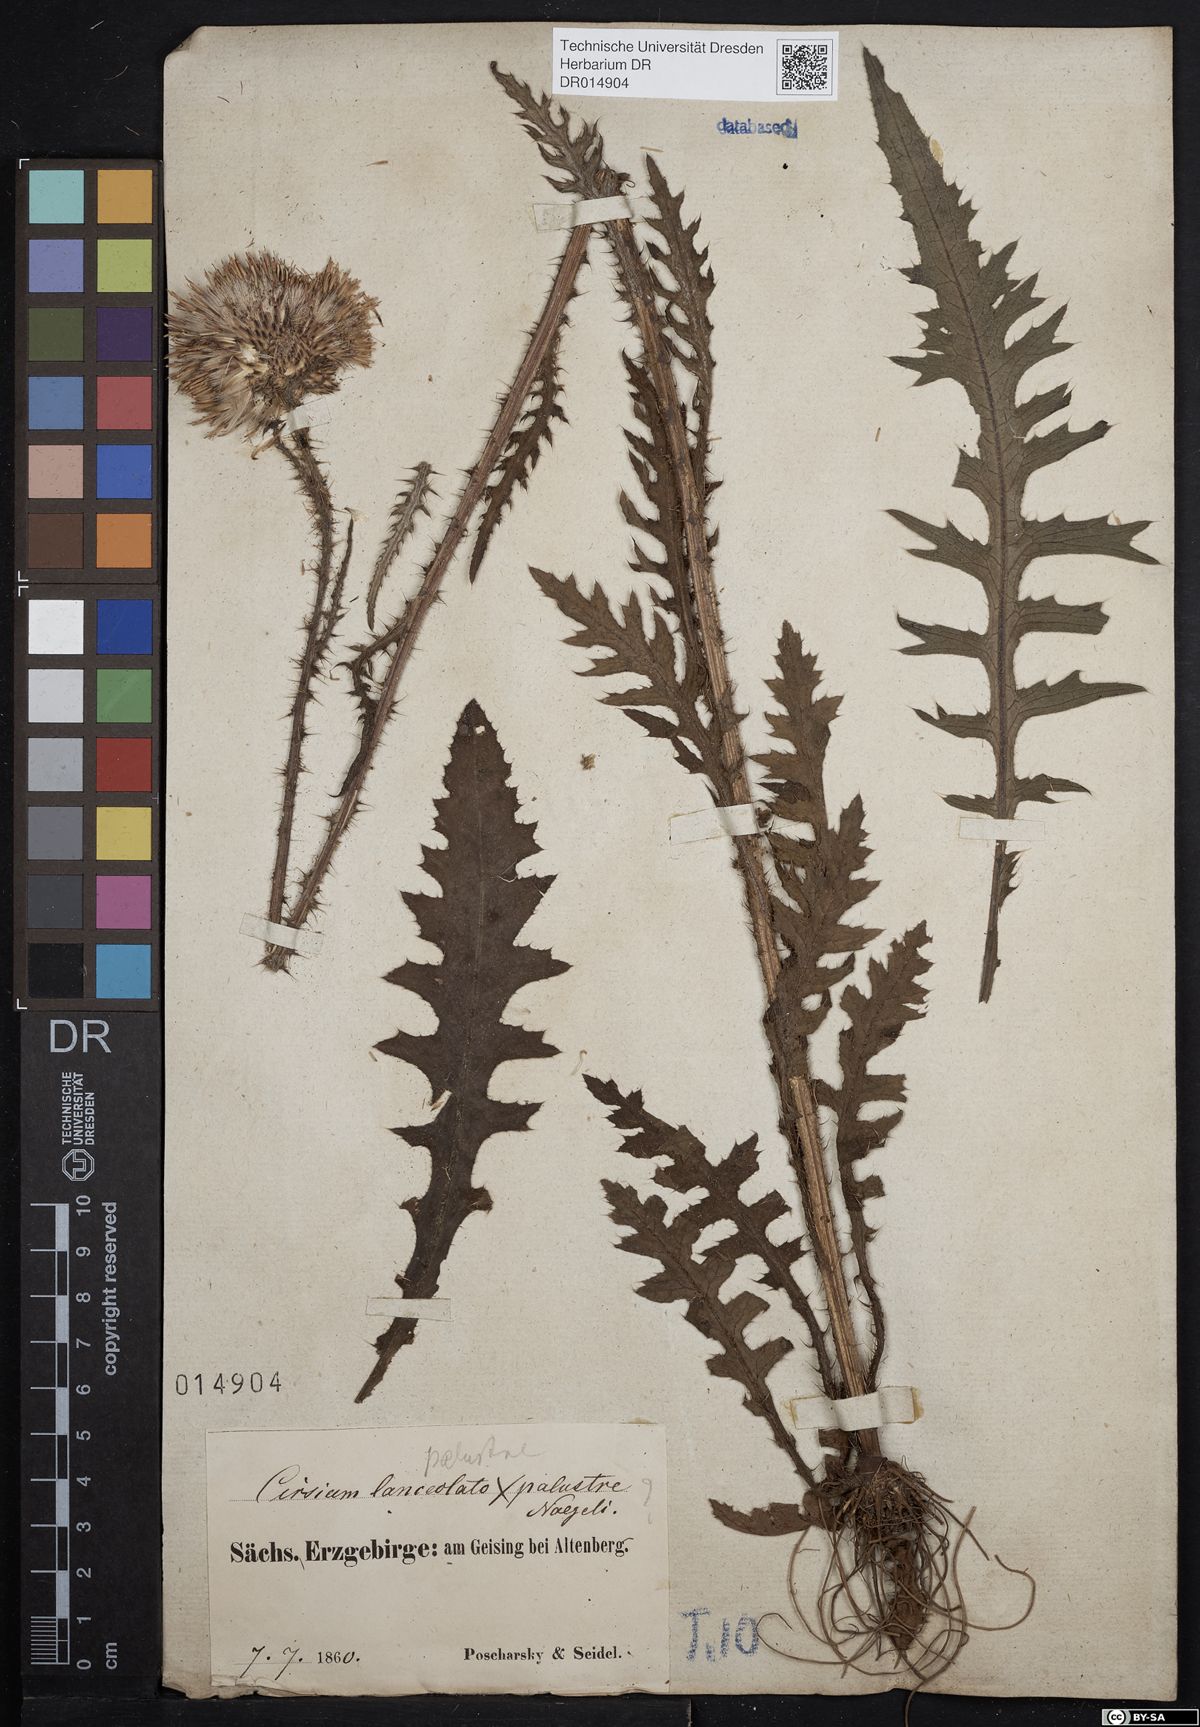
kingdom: Plantae
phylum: Tracheophyta
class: Magnoliopsida
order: Asterales
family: Asteraceae
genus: Cirsium
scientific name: Cirsium palustre
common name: Marsh thistle
